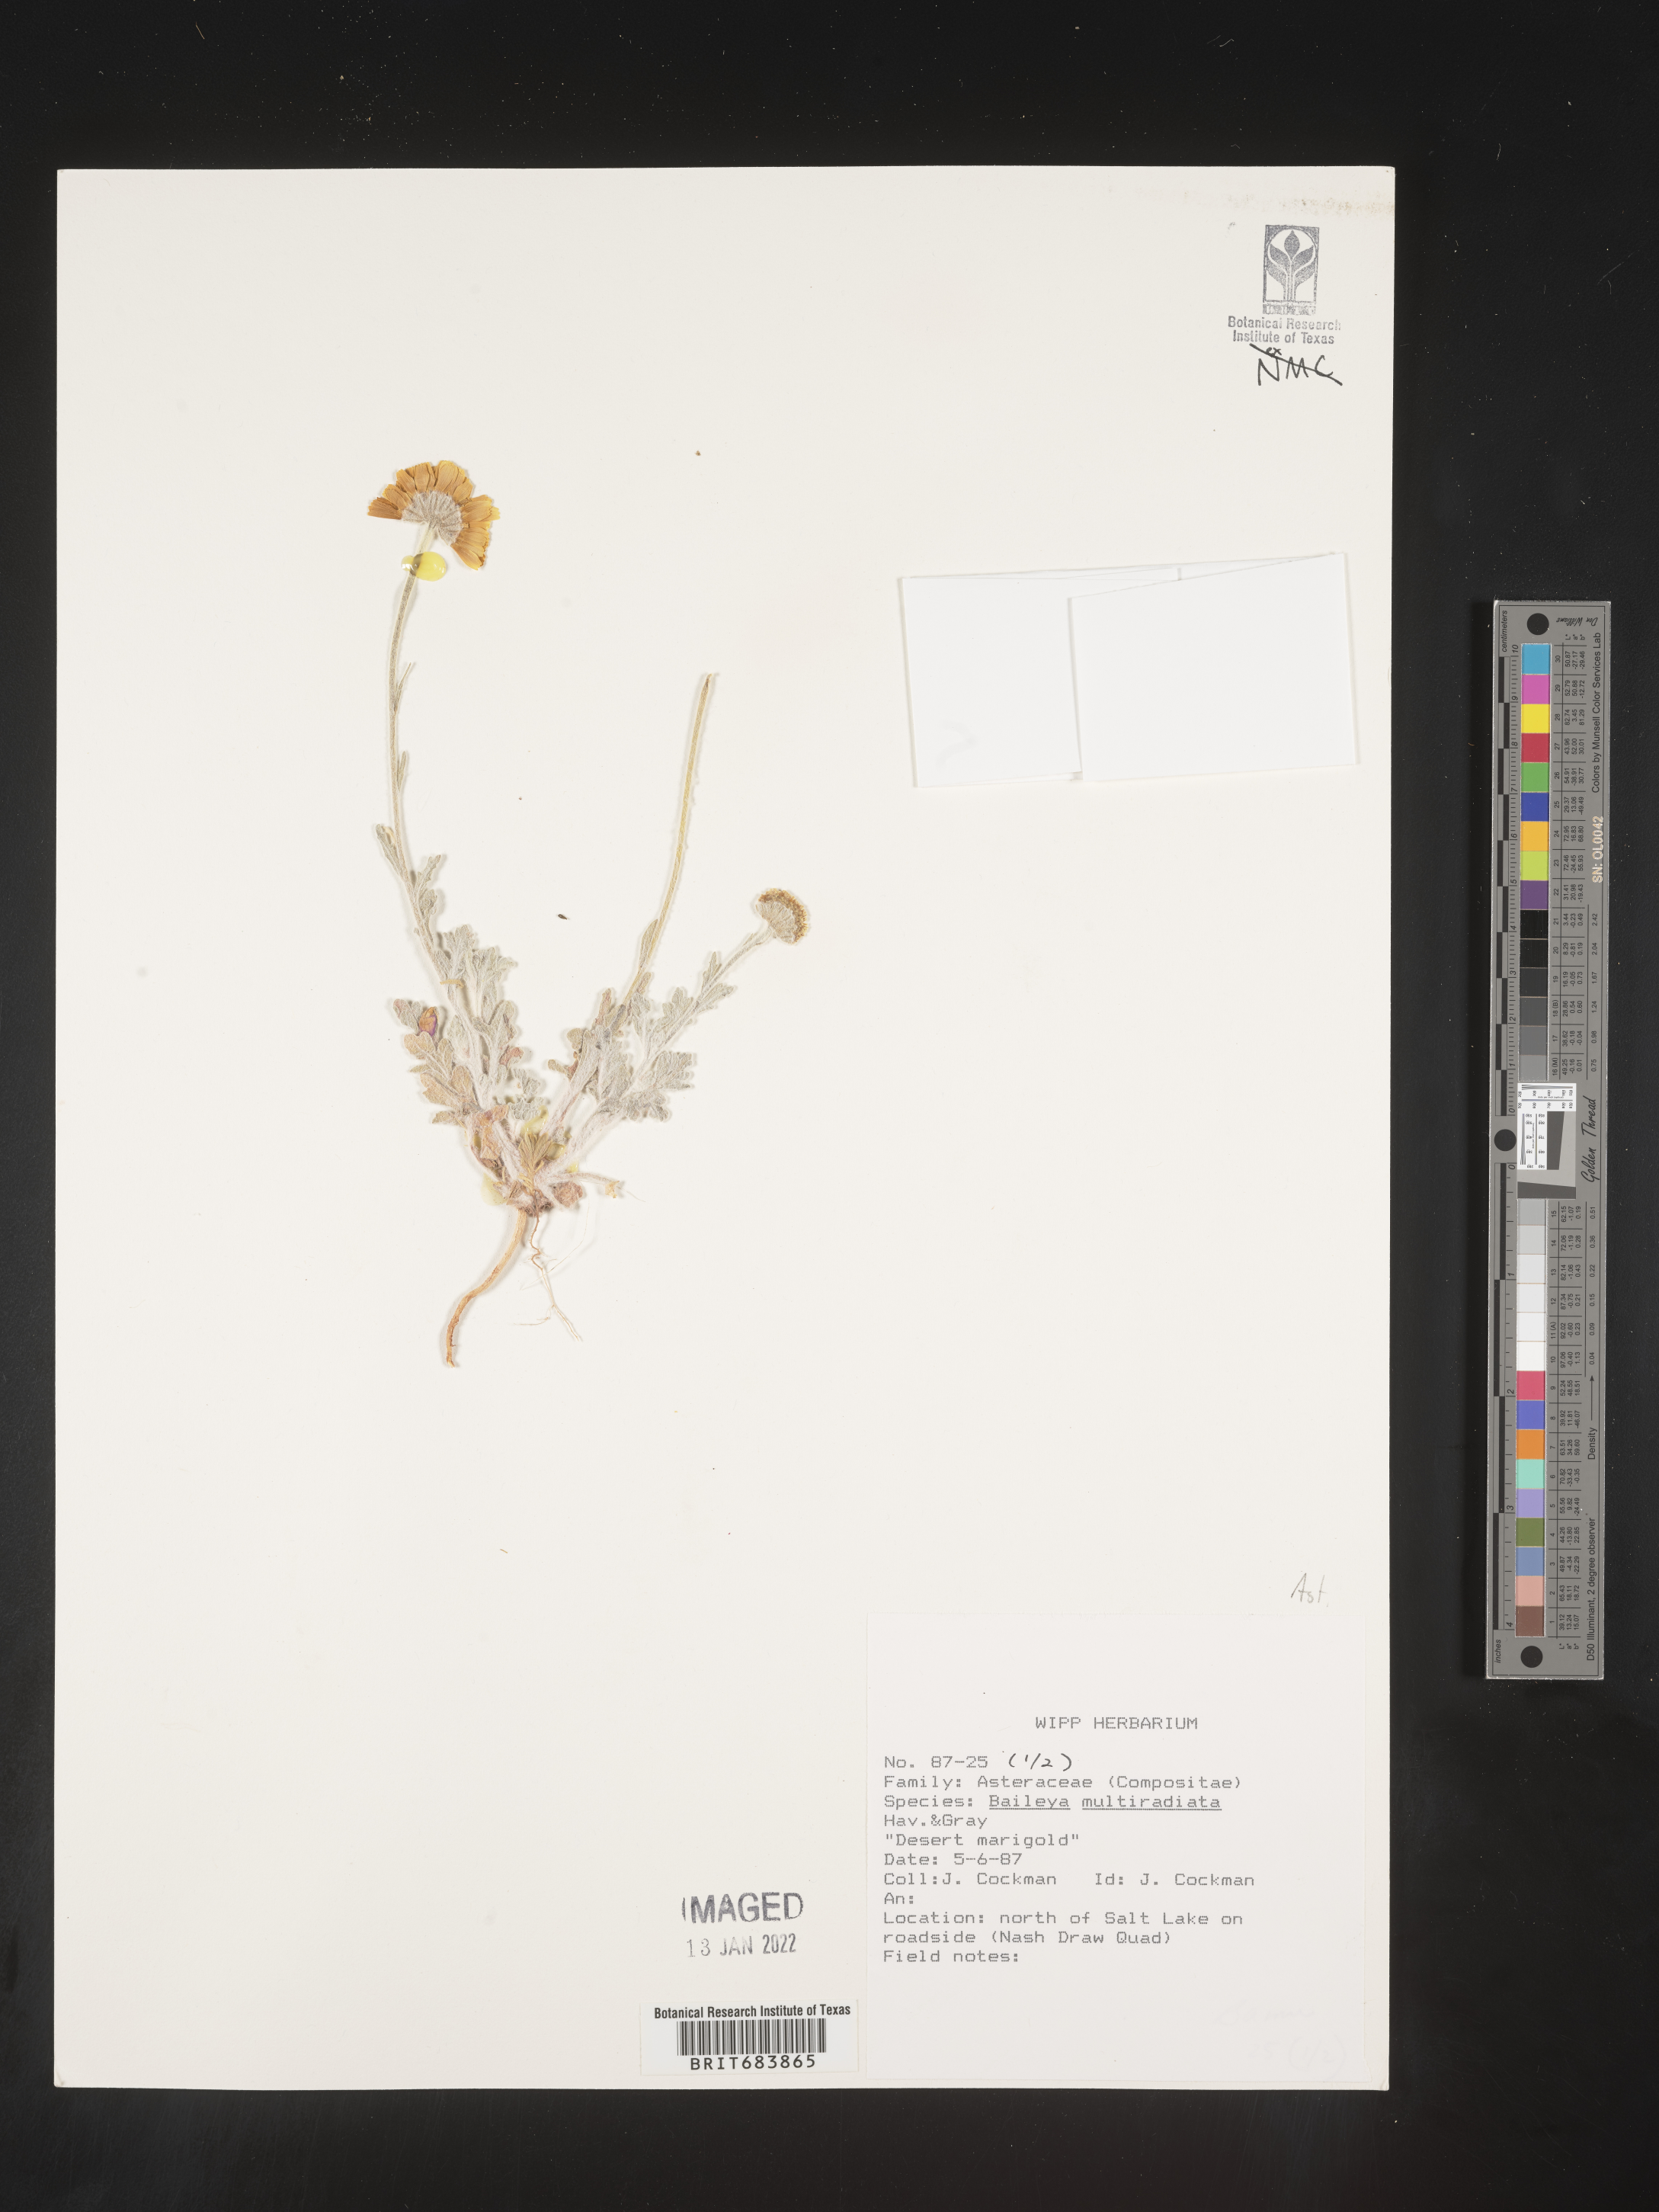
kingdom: Plantae
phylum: Tracheophyta
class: Magnoliopsida
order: Asterales
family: Asteraceae
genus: Baileya
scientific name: Baileya multiradiata
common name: Desert-marigold
